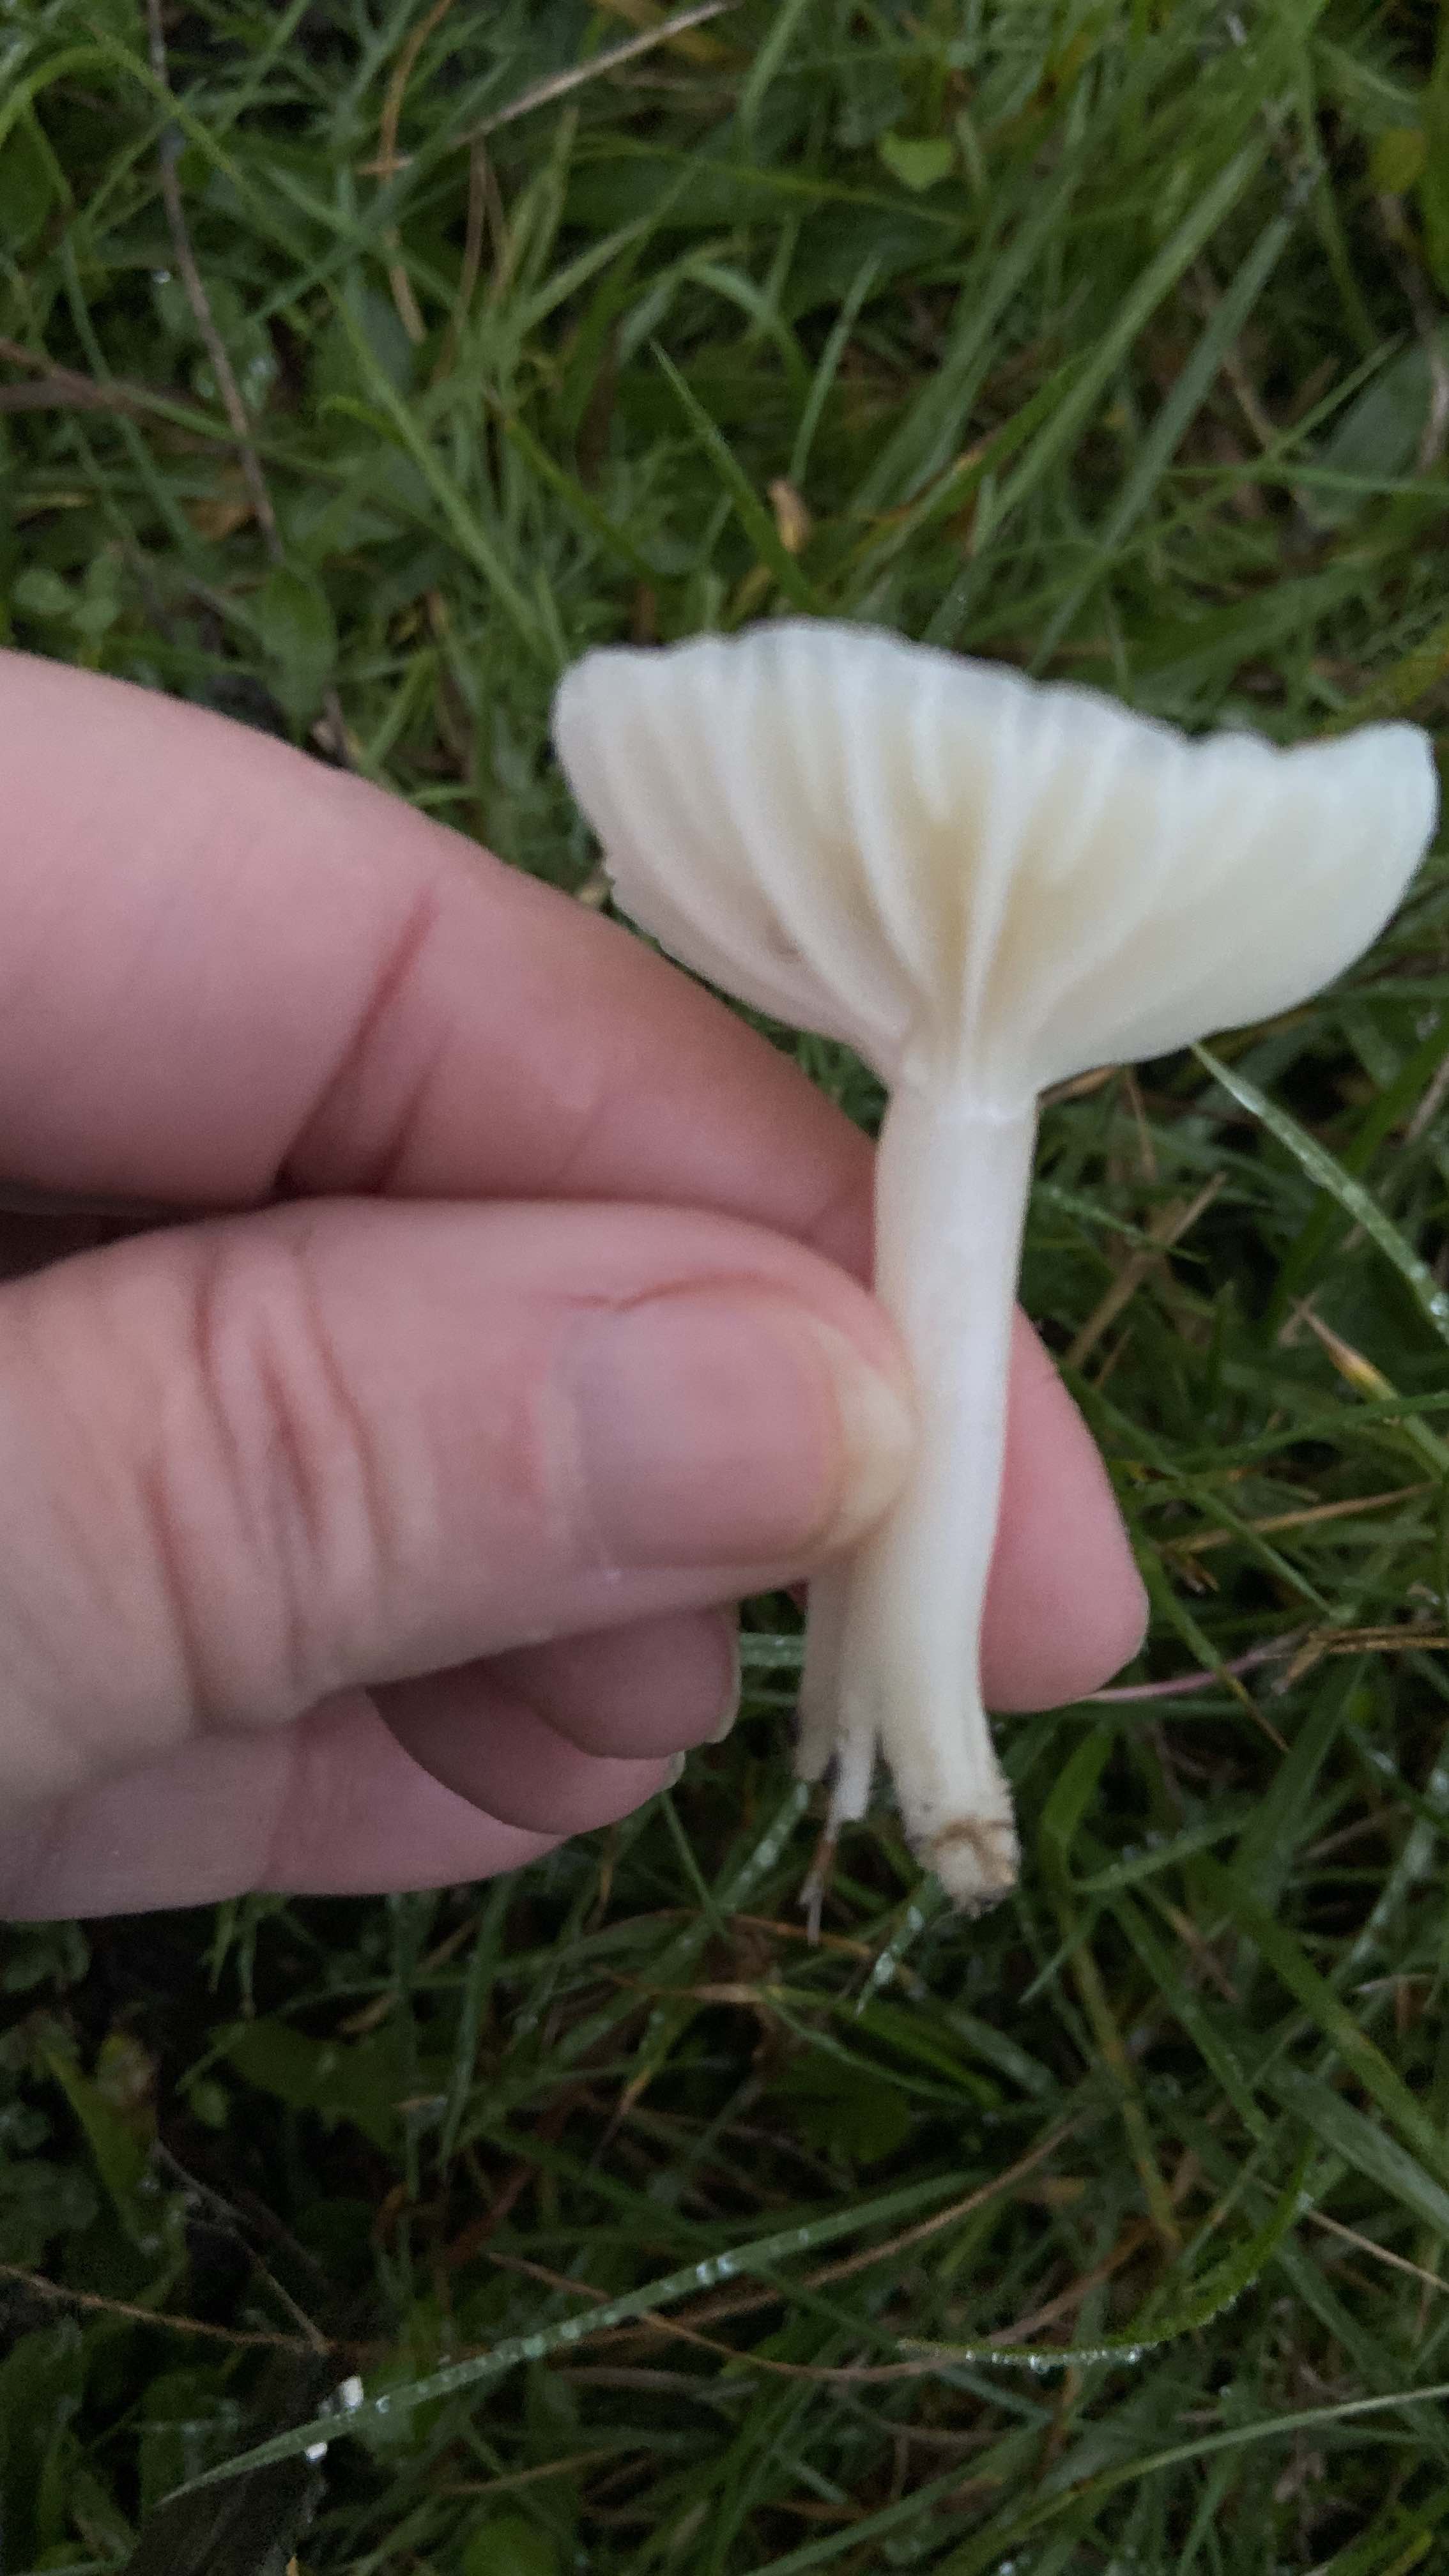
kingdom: Fungi
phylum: Basidiomycota
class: Agaricomycetes
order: Agaricales
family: Hygrophoraceae
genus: Cuphophyllus
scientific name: Cuphophyllus virgineus
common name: snehvid vokshat
